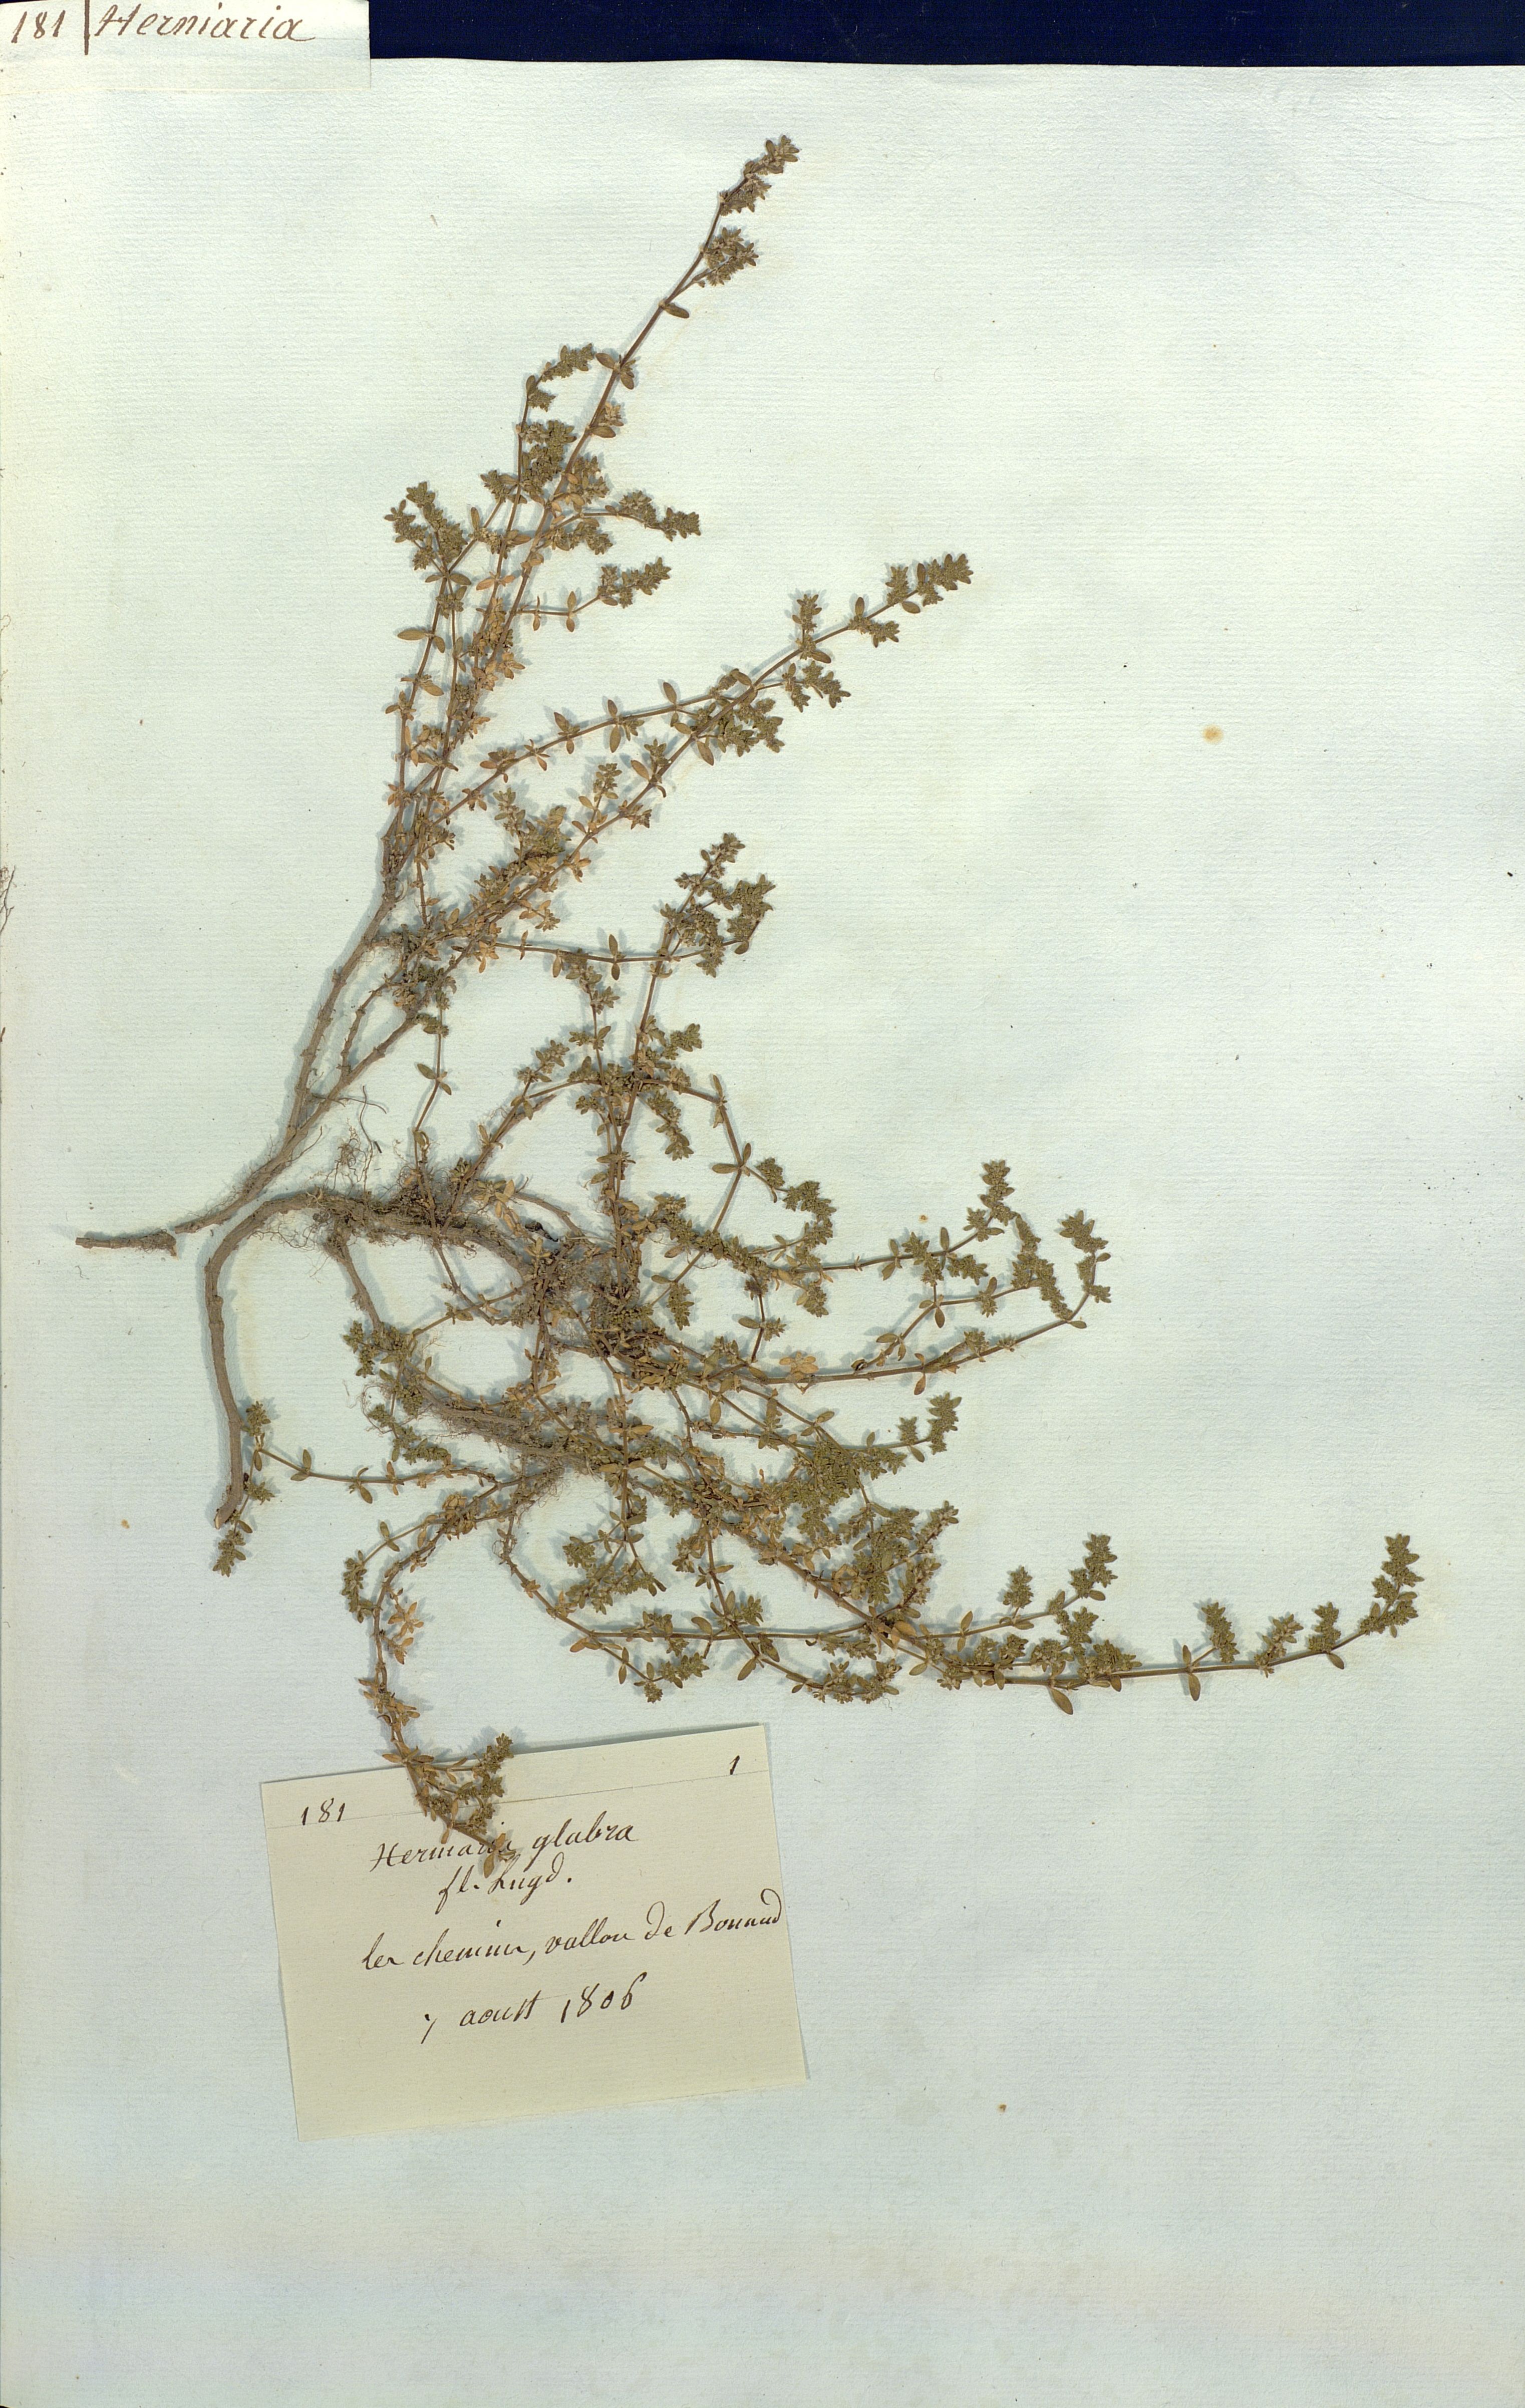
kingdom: Plantae
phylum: Tracheophyta
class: Magnoliopsida
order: Caryophyllales
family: Caryophyllaceae
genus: Herniaria
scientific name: Herniaria glabra
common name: Smooth rupturewort
